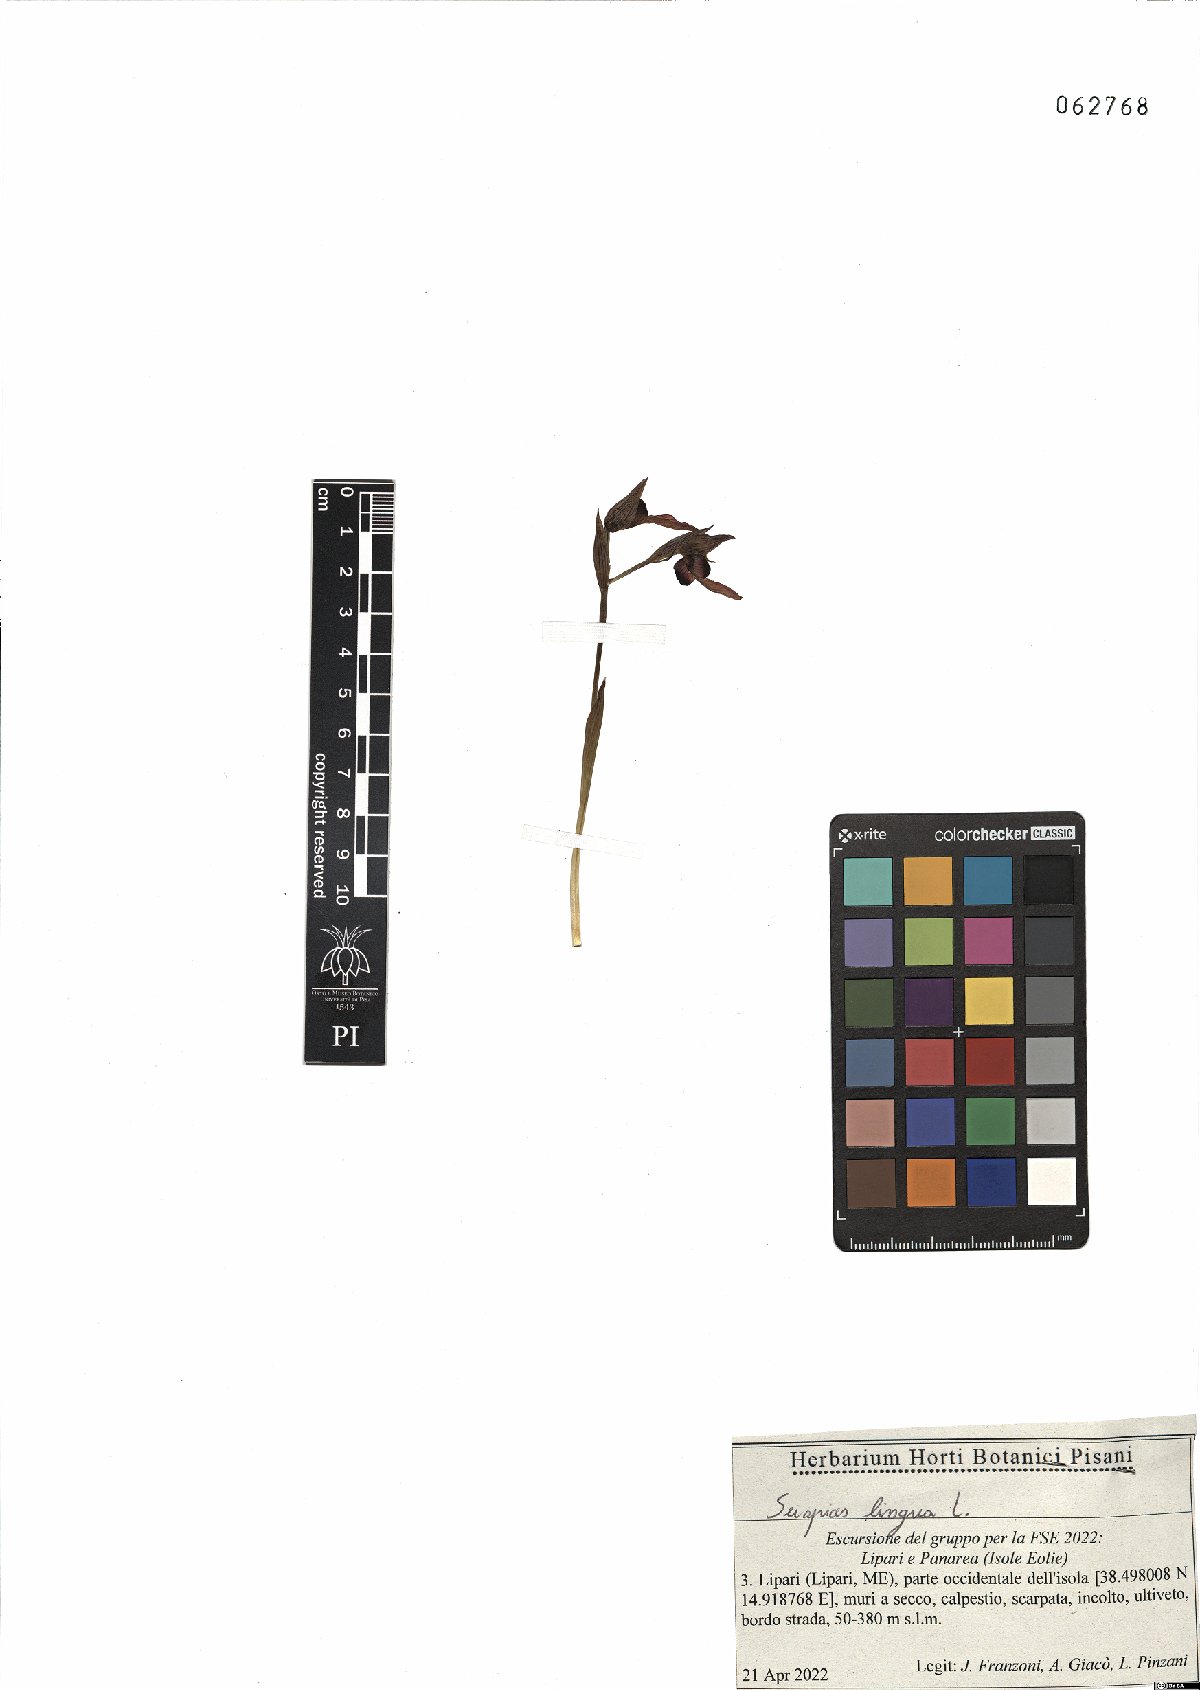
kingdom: Plantae
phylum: Tracheophyta
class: Liliopsida
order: Asparagales
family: Orchidaceae
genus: Serapias
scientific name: Serapias lingua
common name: Tongue-orchid
